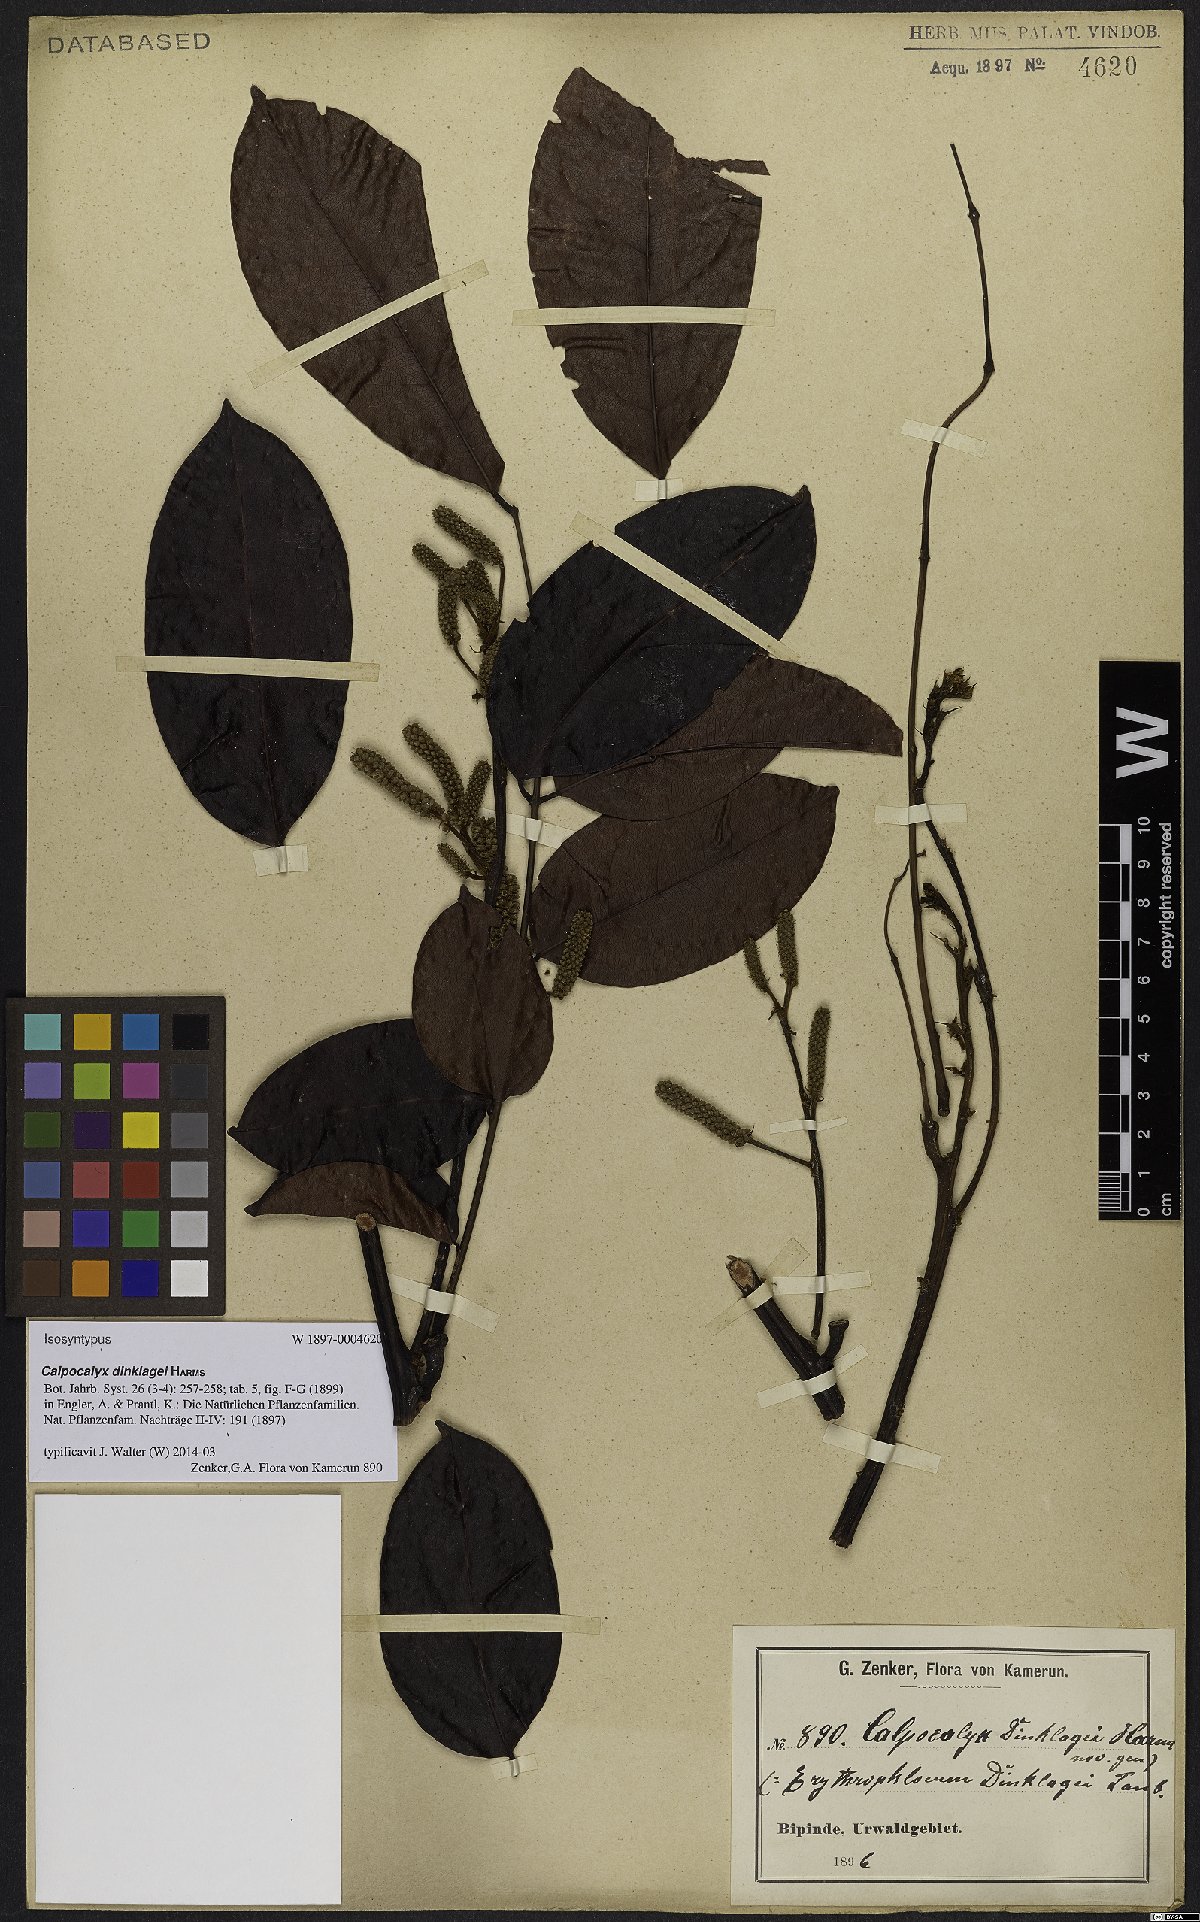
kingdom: Plantae
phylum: Tracheophyta
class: Magnoliopsida
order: Fabales
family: Fabaceae
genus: Calpocalyx
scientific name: Calpocalyx dinklagei
